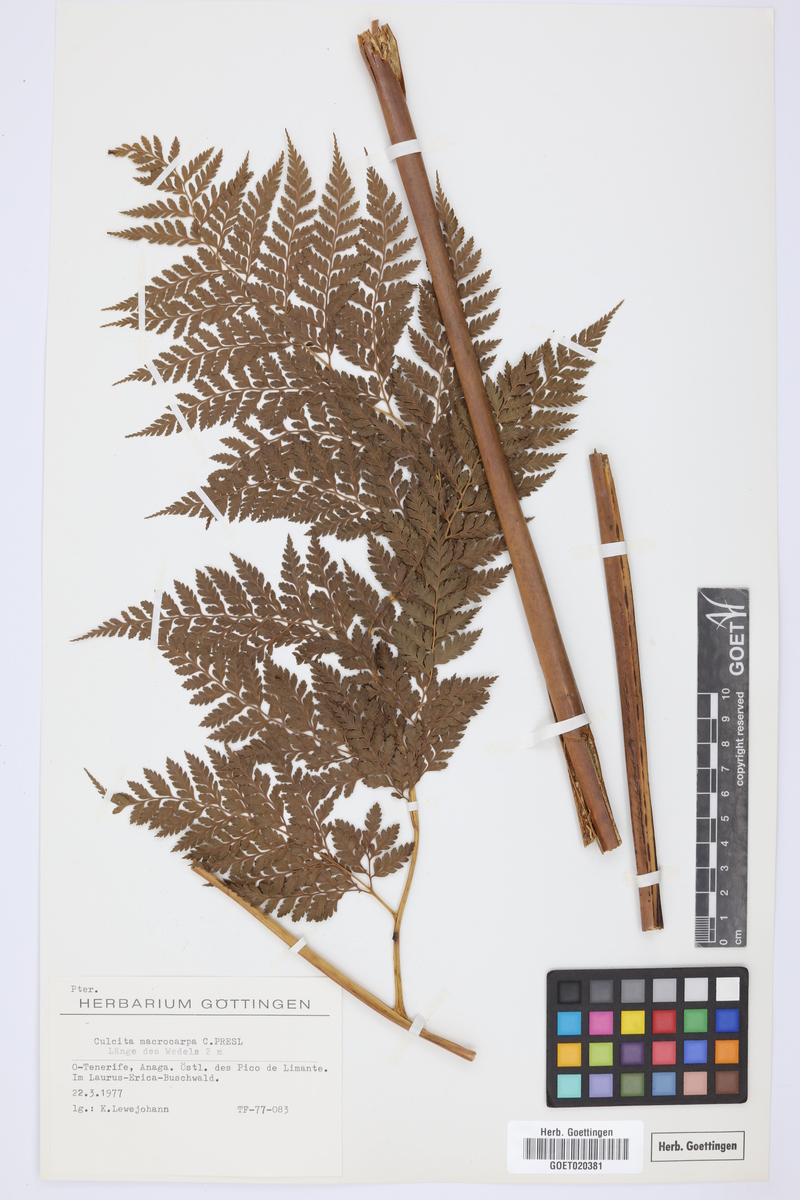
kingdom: Plantae
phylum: Tracheophyta
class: Polypodiopsida
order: Cyatheales
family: Culcitaceae
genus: Culcita
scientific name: Culcita macrocarpa
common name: Woolly tree fern
